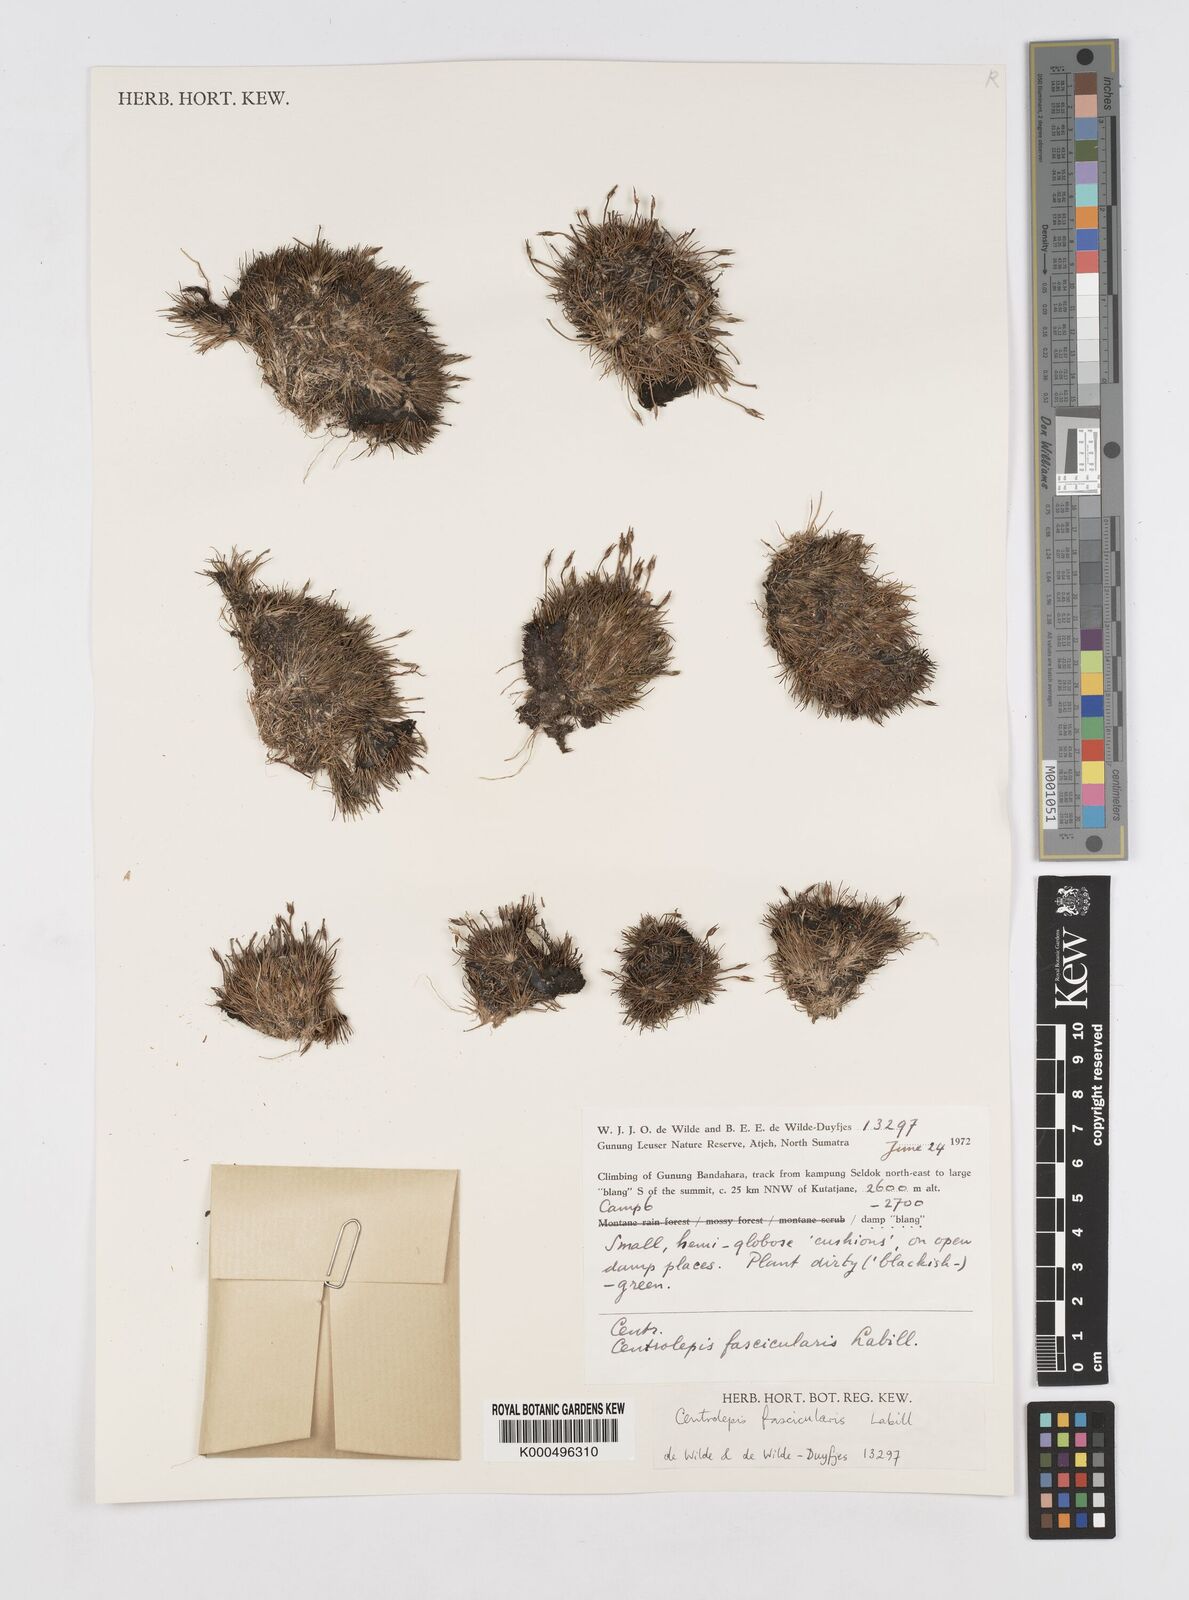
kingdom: Plantae
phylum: Tracheophyta
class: Liliopsida
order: Poales
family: Restionaceae
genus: Centrolepis
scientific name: Centrolepis philippinensis
